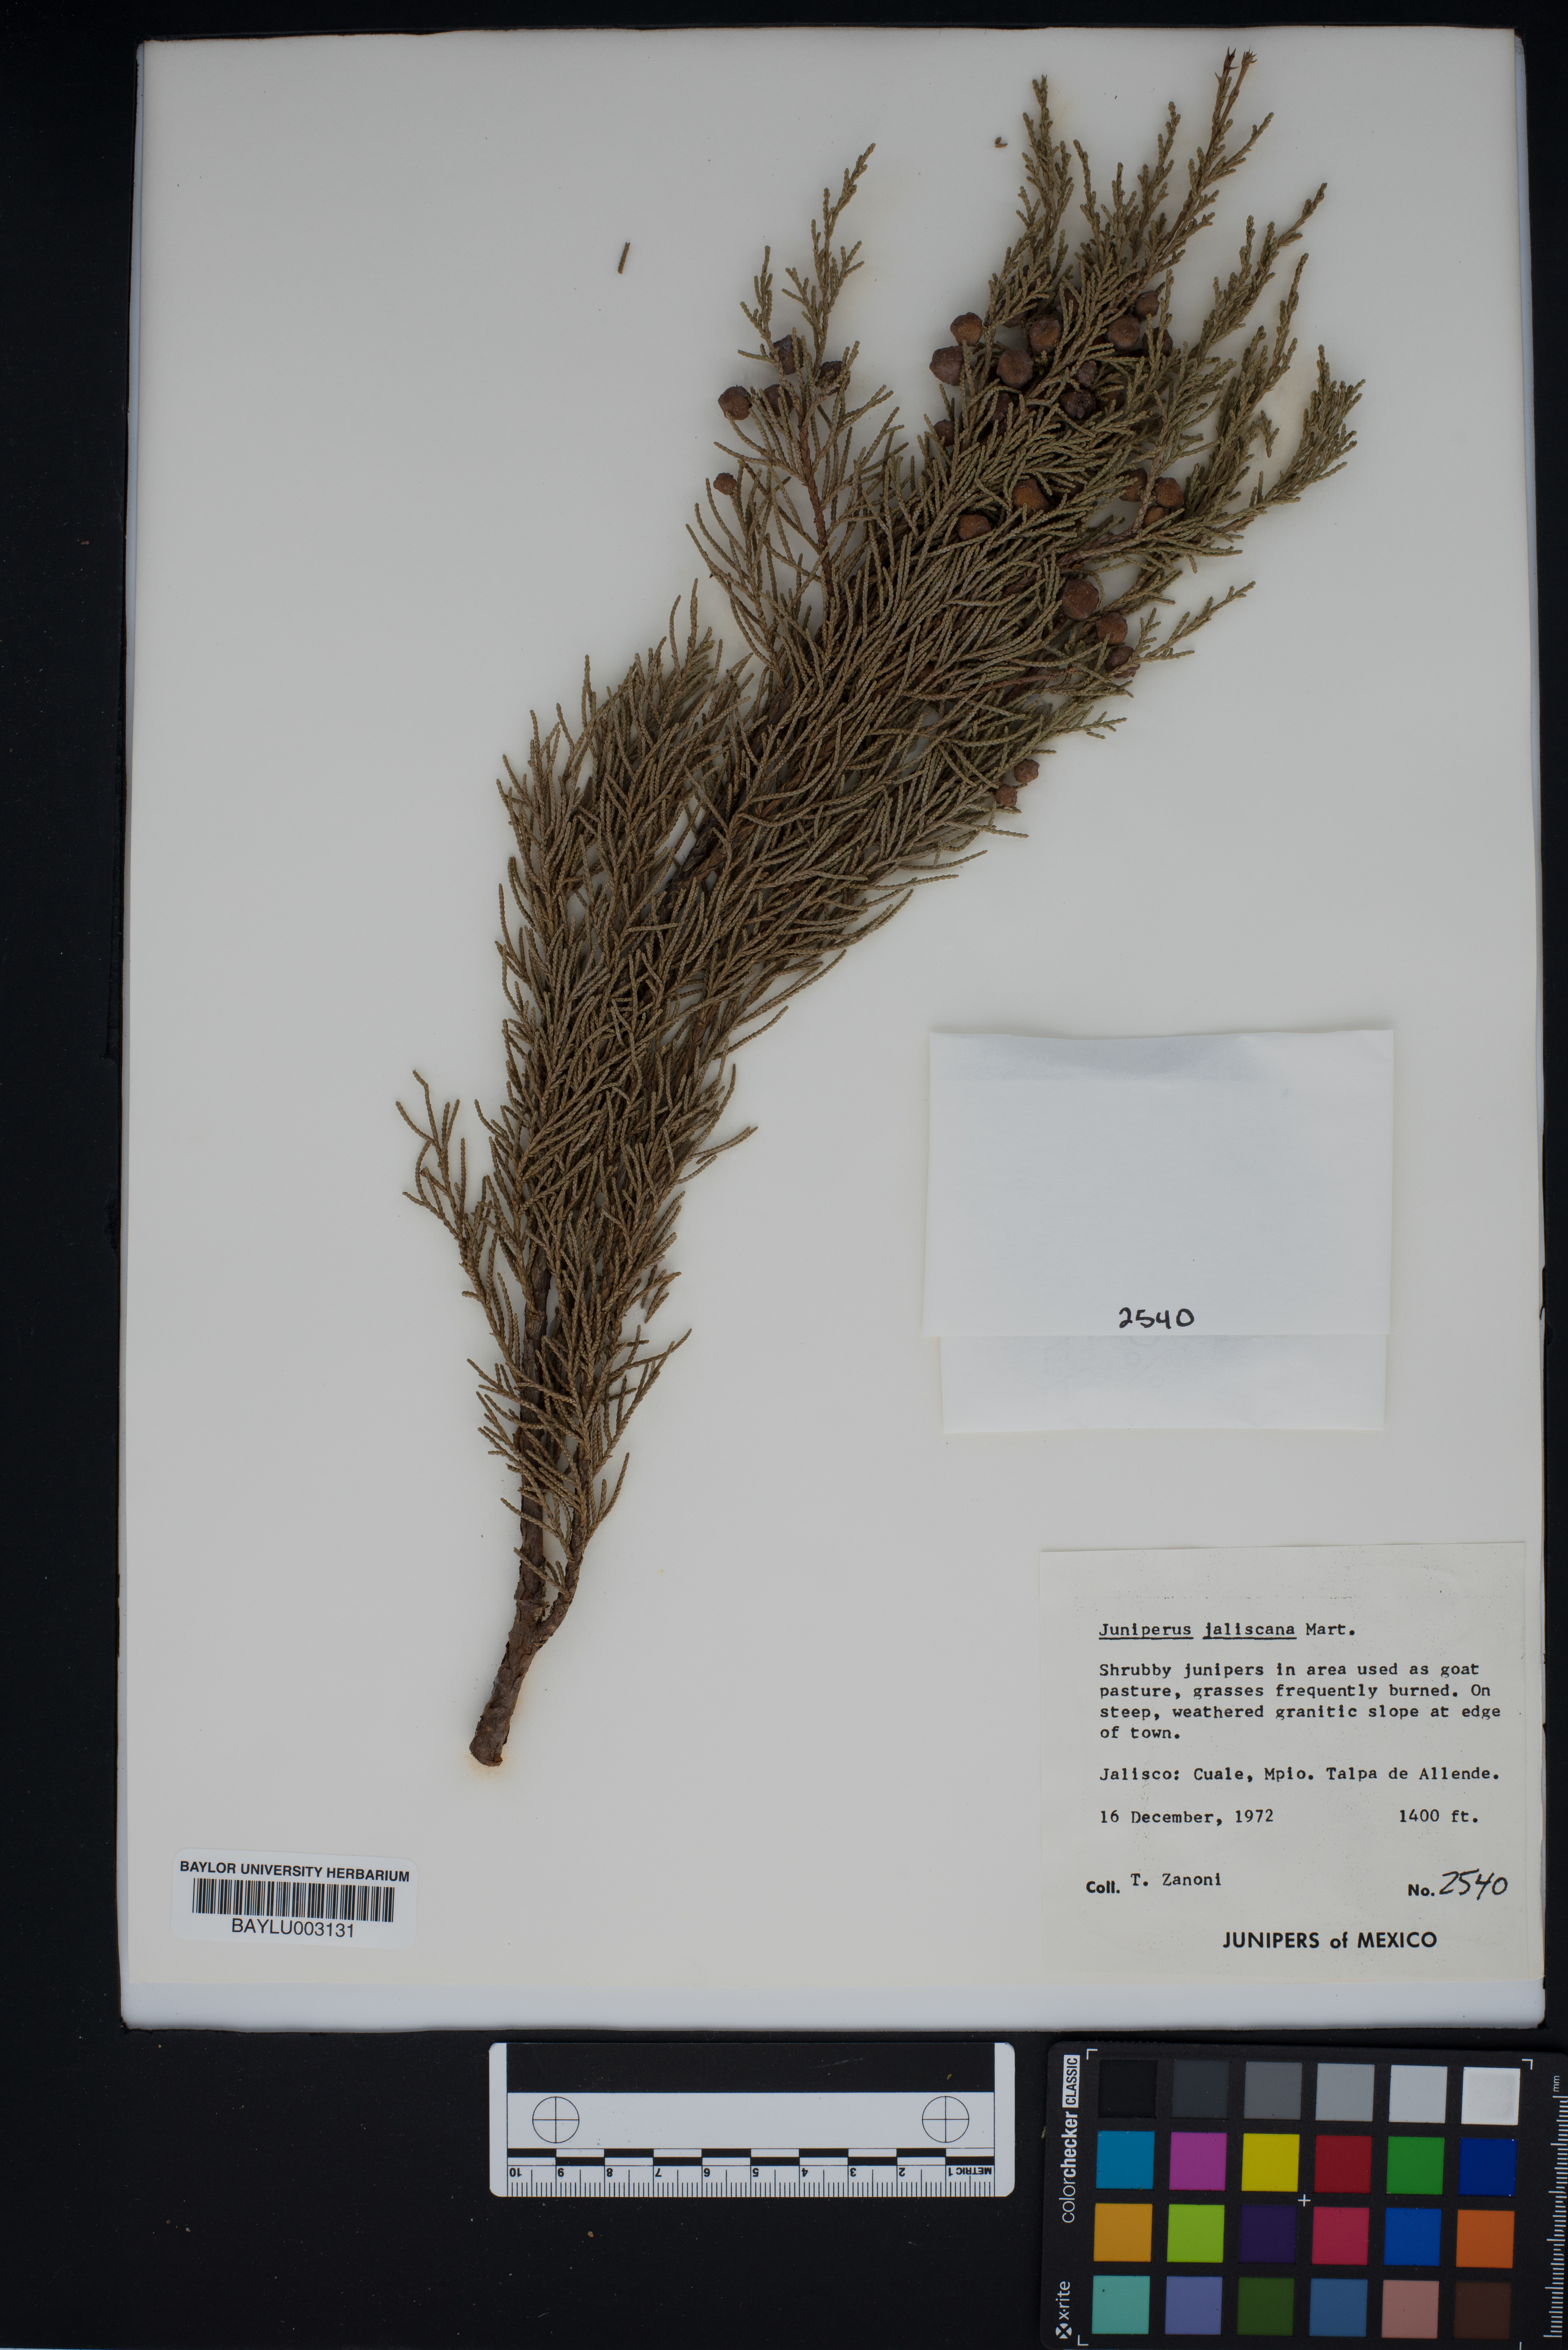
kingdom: Plantae
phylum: Tracheophyta
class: Pinopsida
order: Pinales
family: Cupressaceae
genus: Juniperus
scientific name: Juniperus jaliscana
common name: Jalisco juniper
